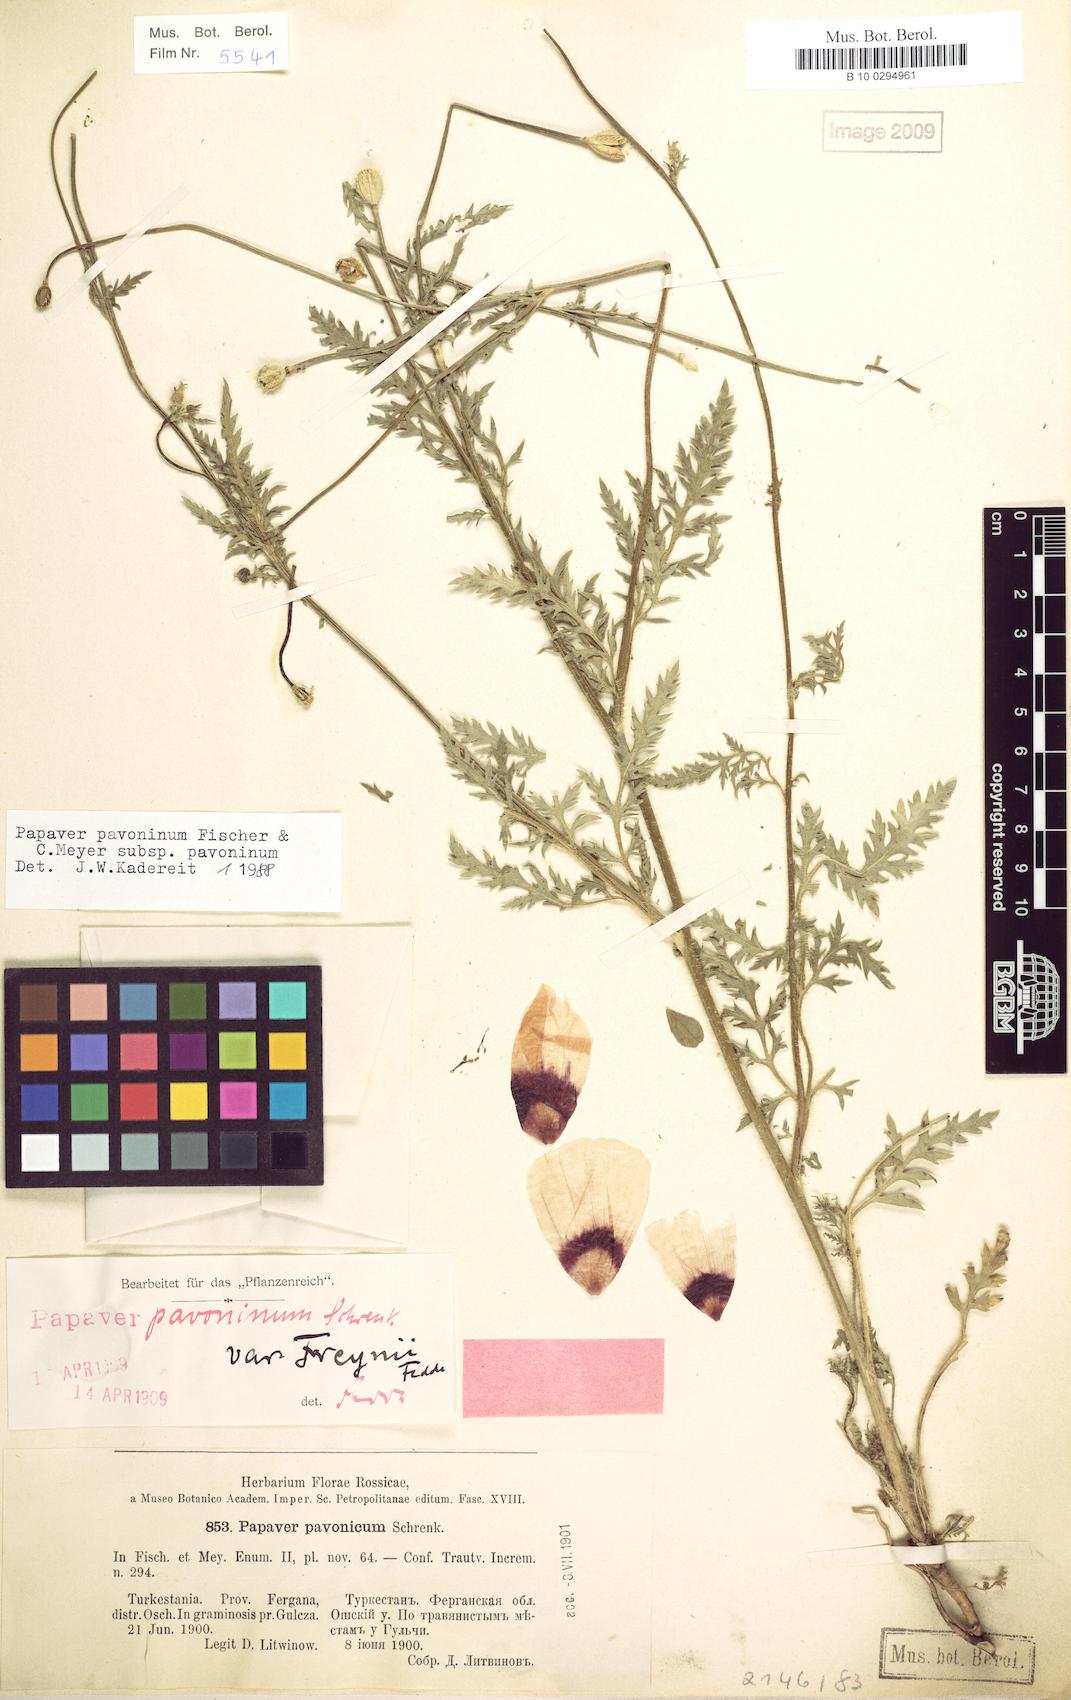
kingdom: Plantae
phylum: Tracheophyta
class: Magnoliopsida
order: Ranunculales
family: Papaveraceae
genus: Roemeria
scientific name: Roemeria pavonina
